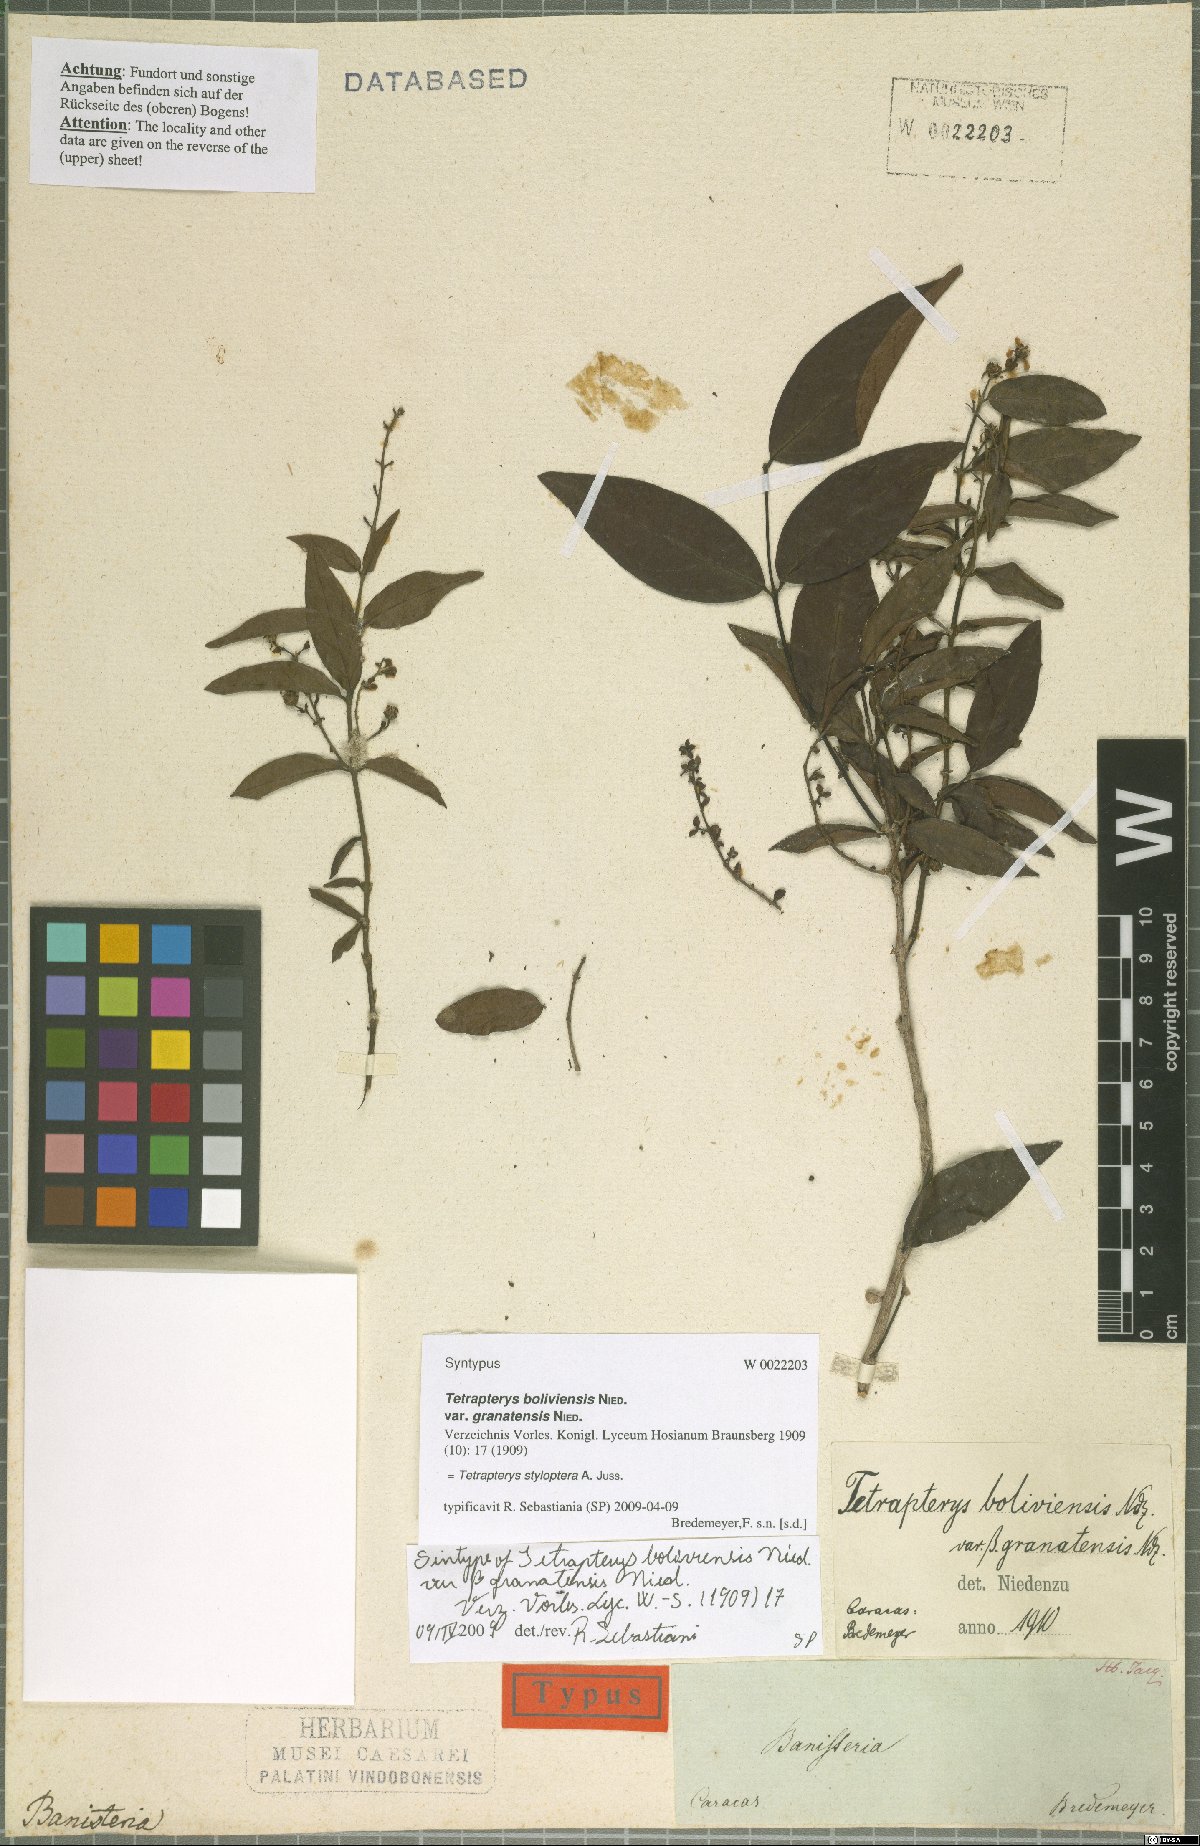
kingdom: Plantae
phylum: Tracheophyta
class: Magnoliopsida
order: Malpighiales
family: Malpighiaceae
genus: Glicophyllum
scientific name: Glicophyllum stylopterum
